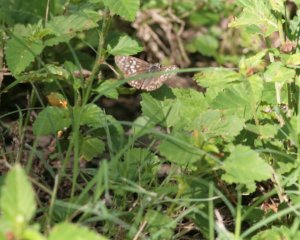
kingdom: Animalia
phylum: Arthropoda
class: Insecta
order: Lepidoptera
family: Hesperiidae
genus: Pyrgus
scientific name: Pyrgus communis
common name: Common Checkered-Skipper
